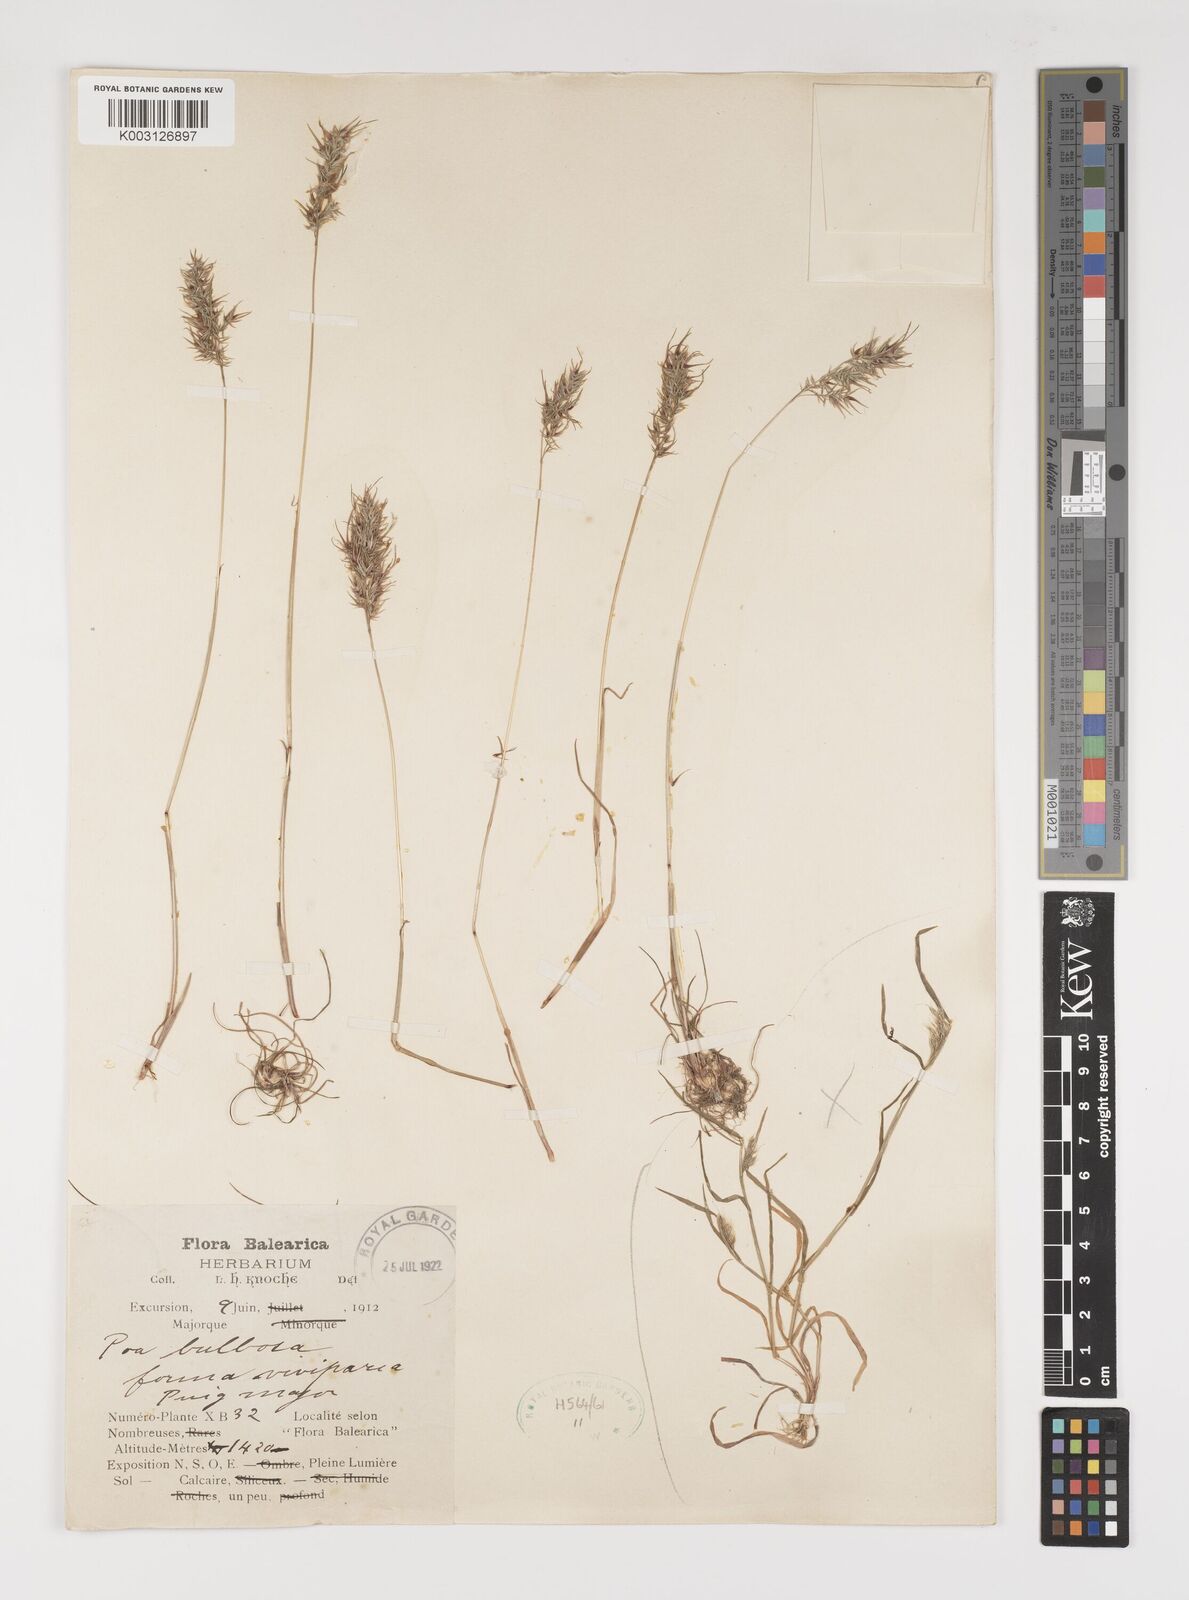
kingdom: Plantae
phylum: Tracheophyta
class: Liliopsida
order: Poales
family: Poaceae
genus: Poa
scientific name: Poa bulbosa
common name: Bulbous bluegrass
